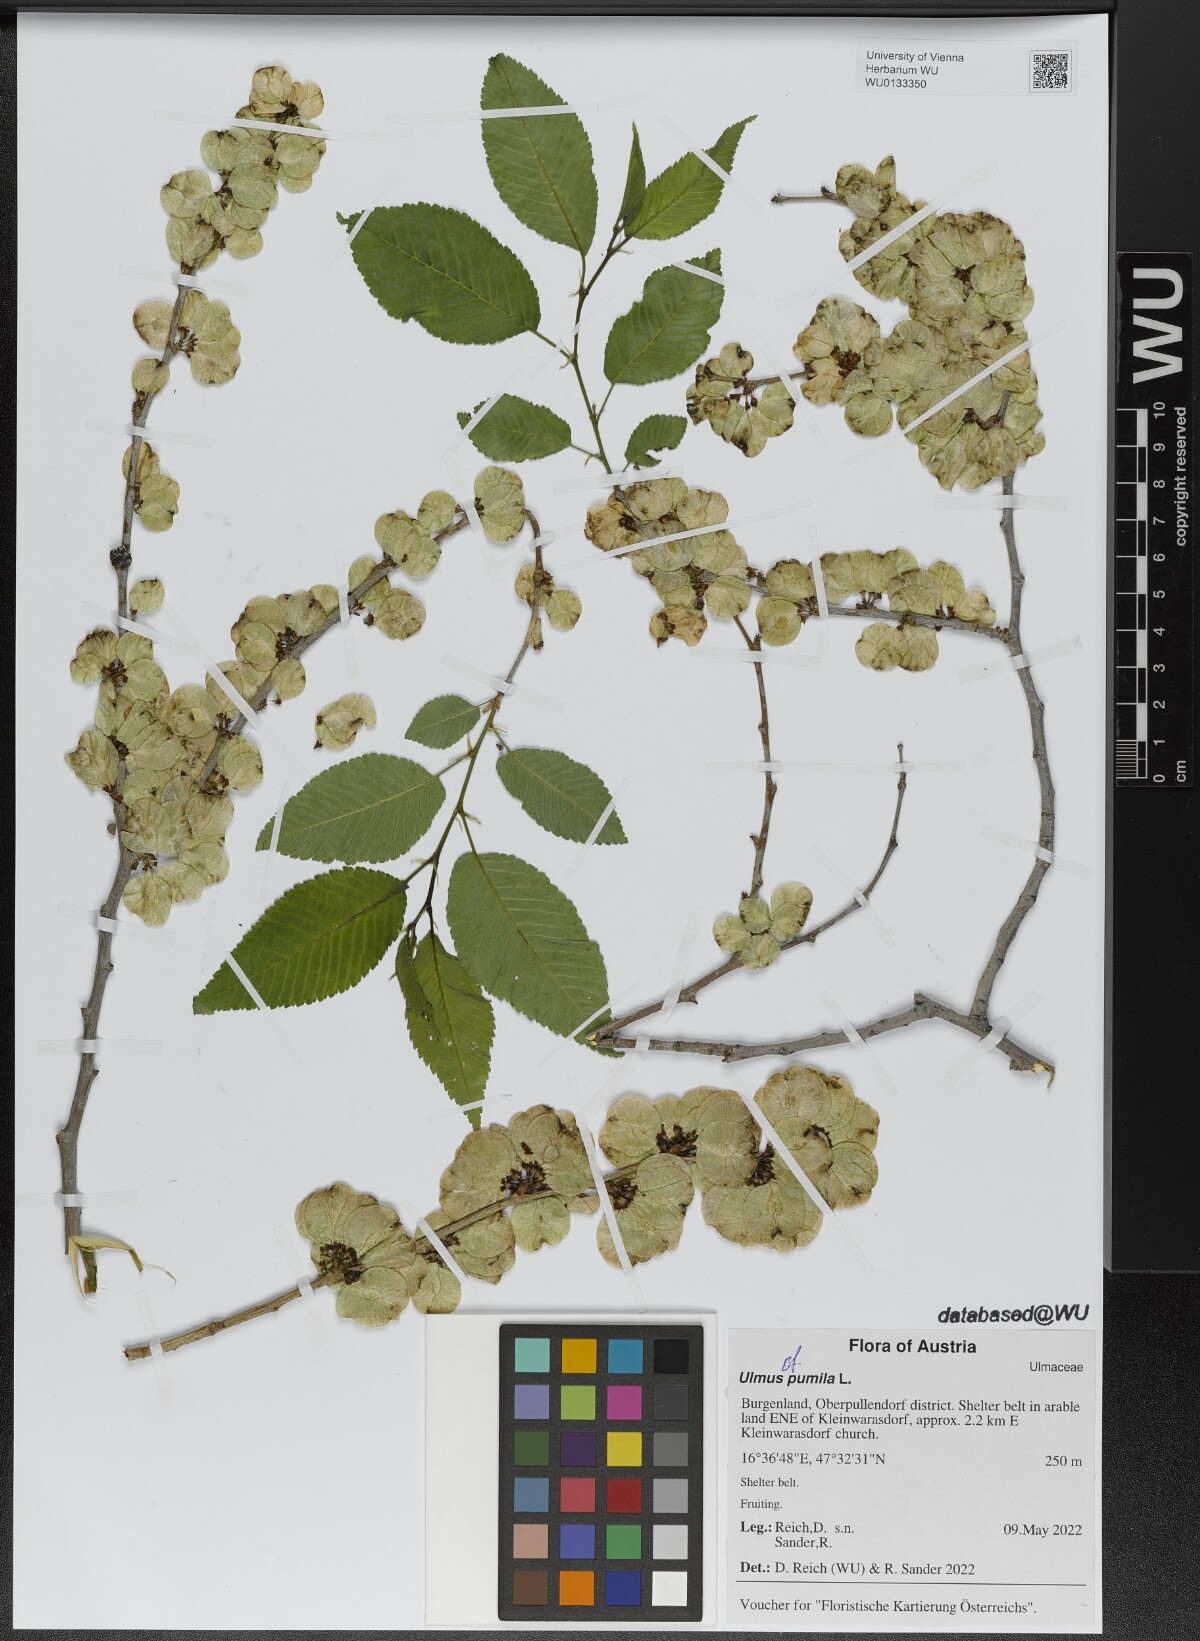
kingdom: Plantae
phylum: Tracheophyta
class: Magnoliopsida
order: Rosales
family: Ulmaceae
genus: Ulmus
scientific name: Ulmus pumila
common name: Siberian elm
